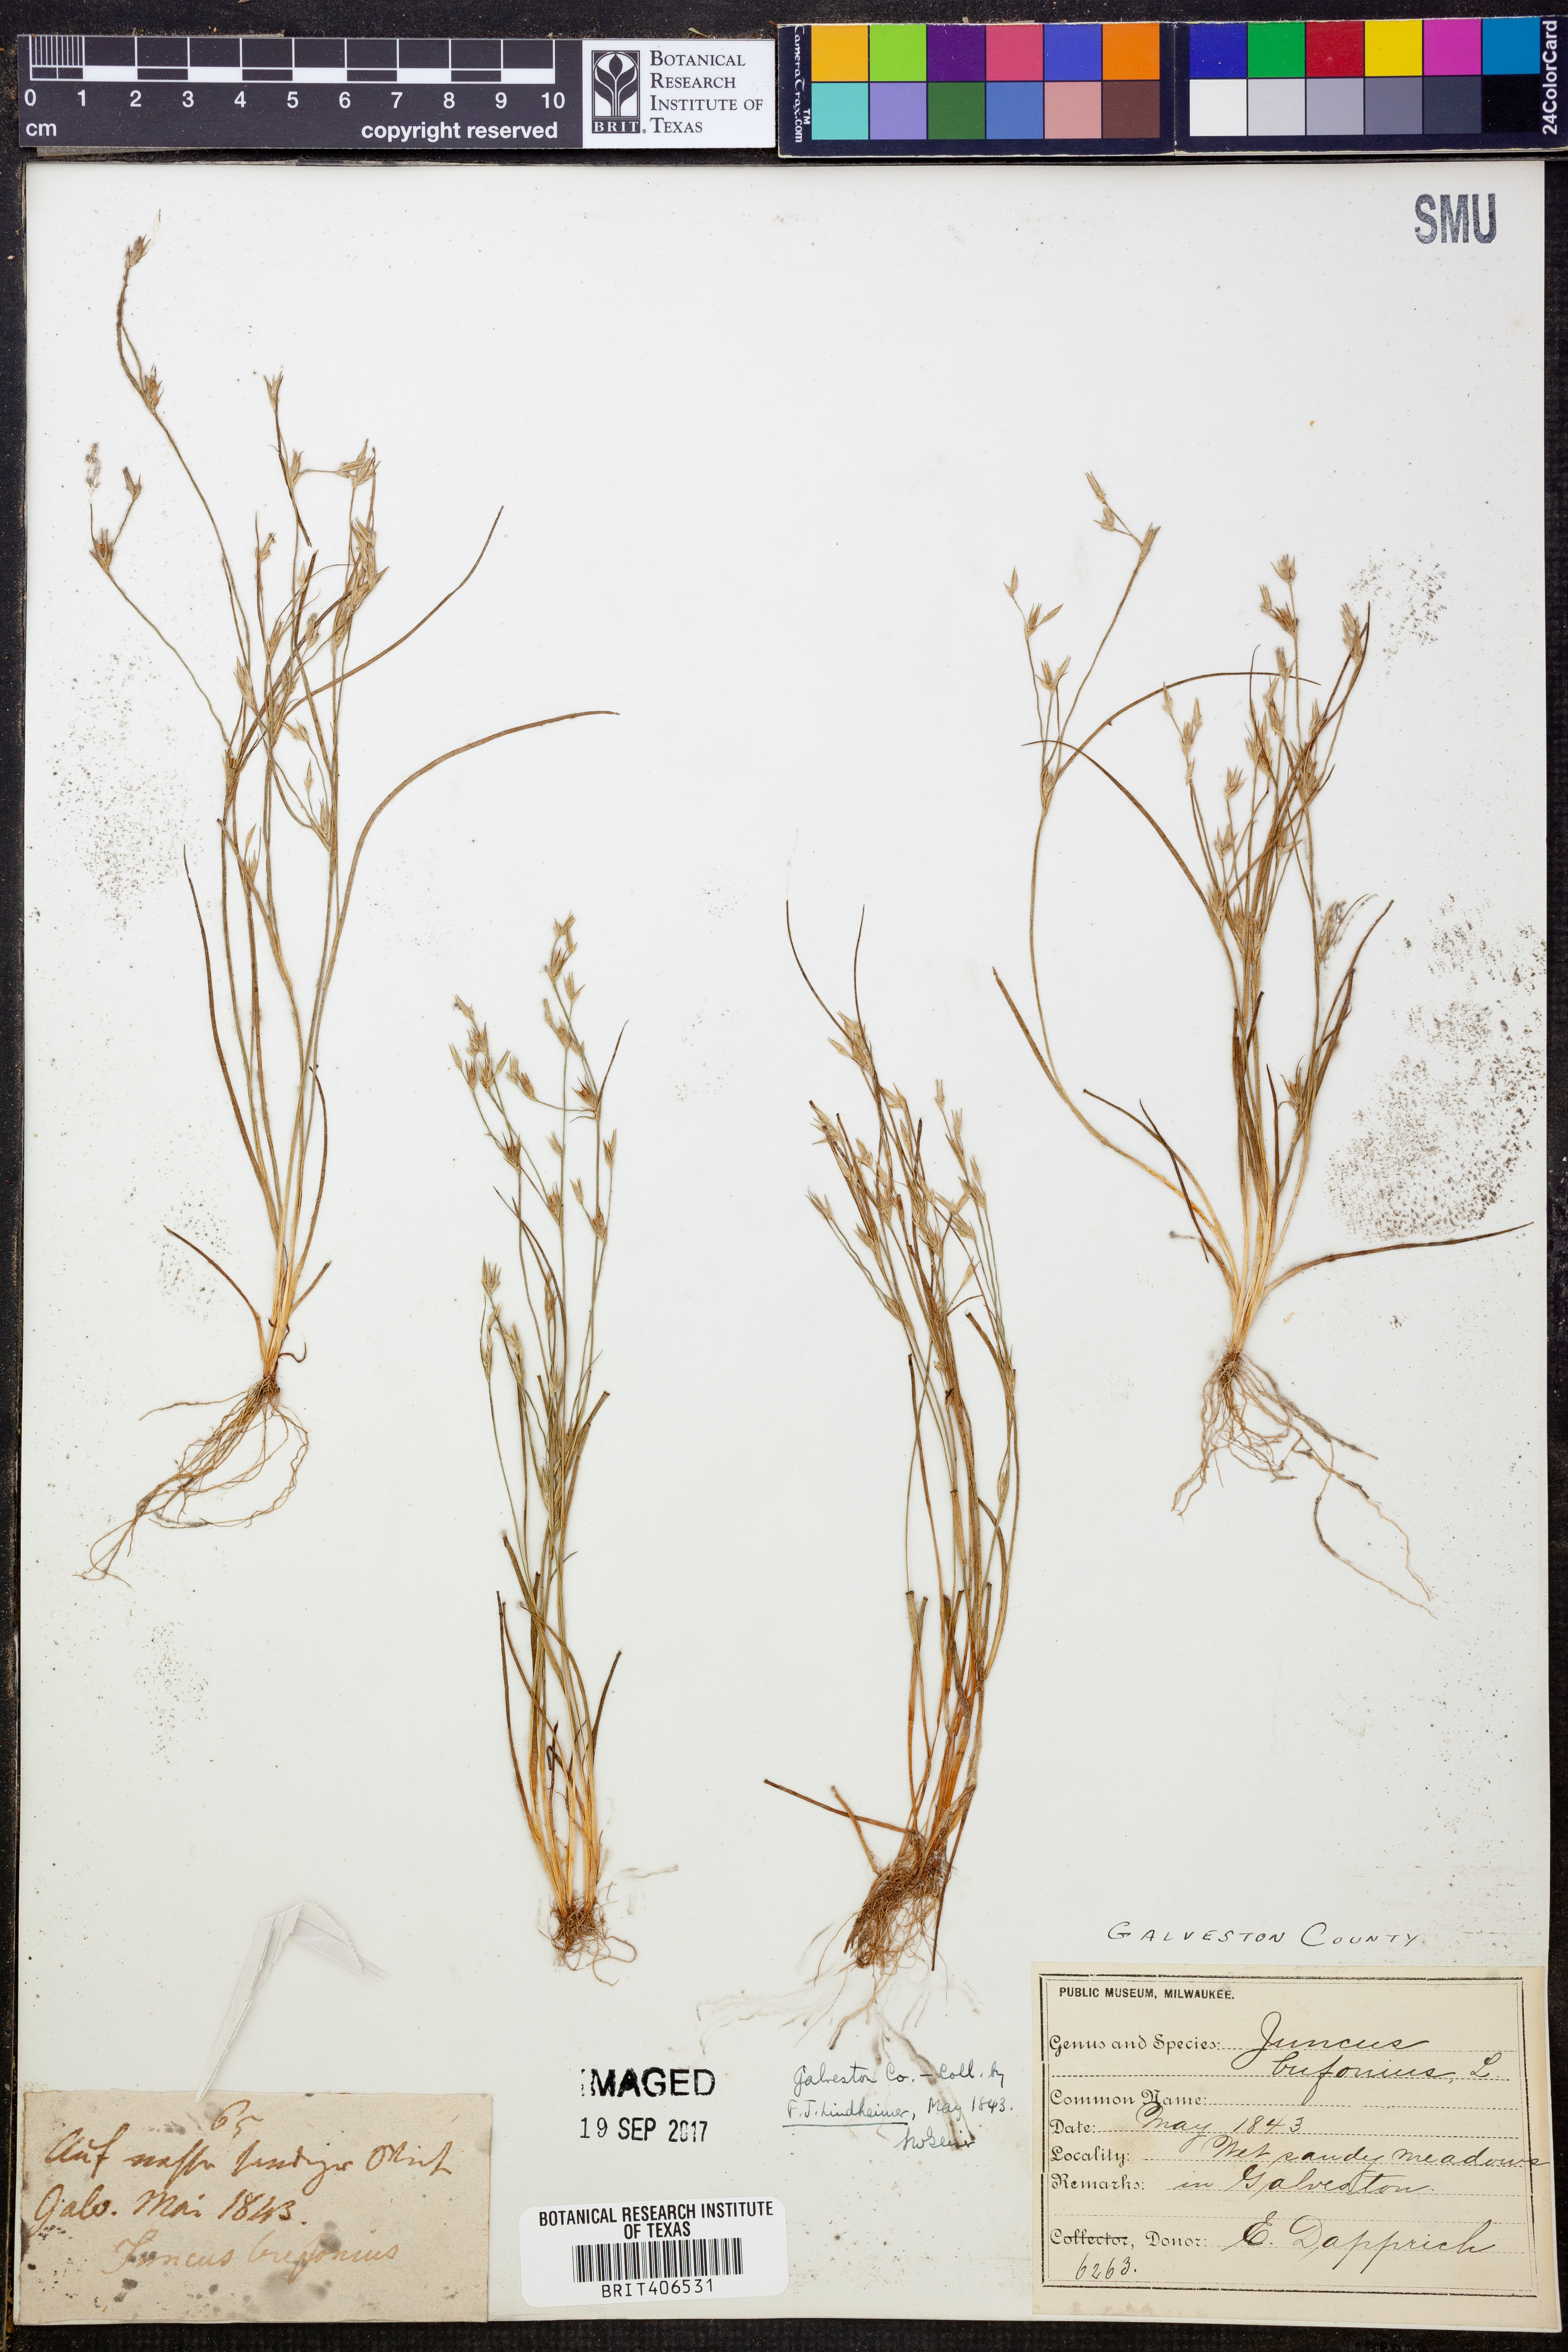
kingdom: Plantae
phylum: Tracheophyta
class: Liliopsida
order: Poales
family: Juncaceae
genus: Juncus
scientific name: Juncus bufonius
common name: Toad rush
